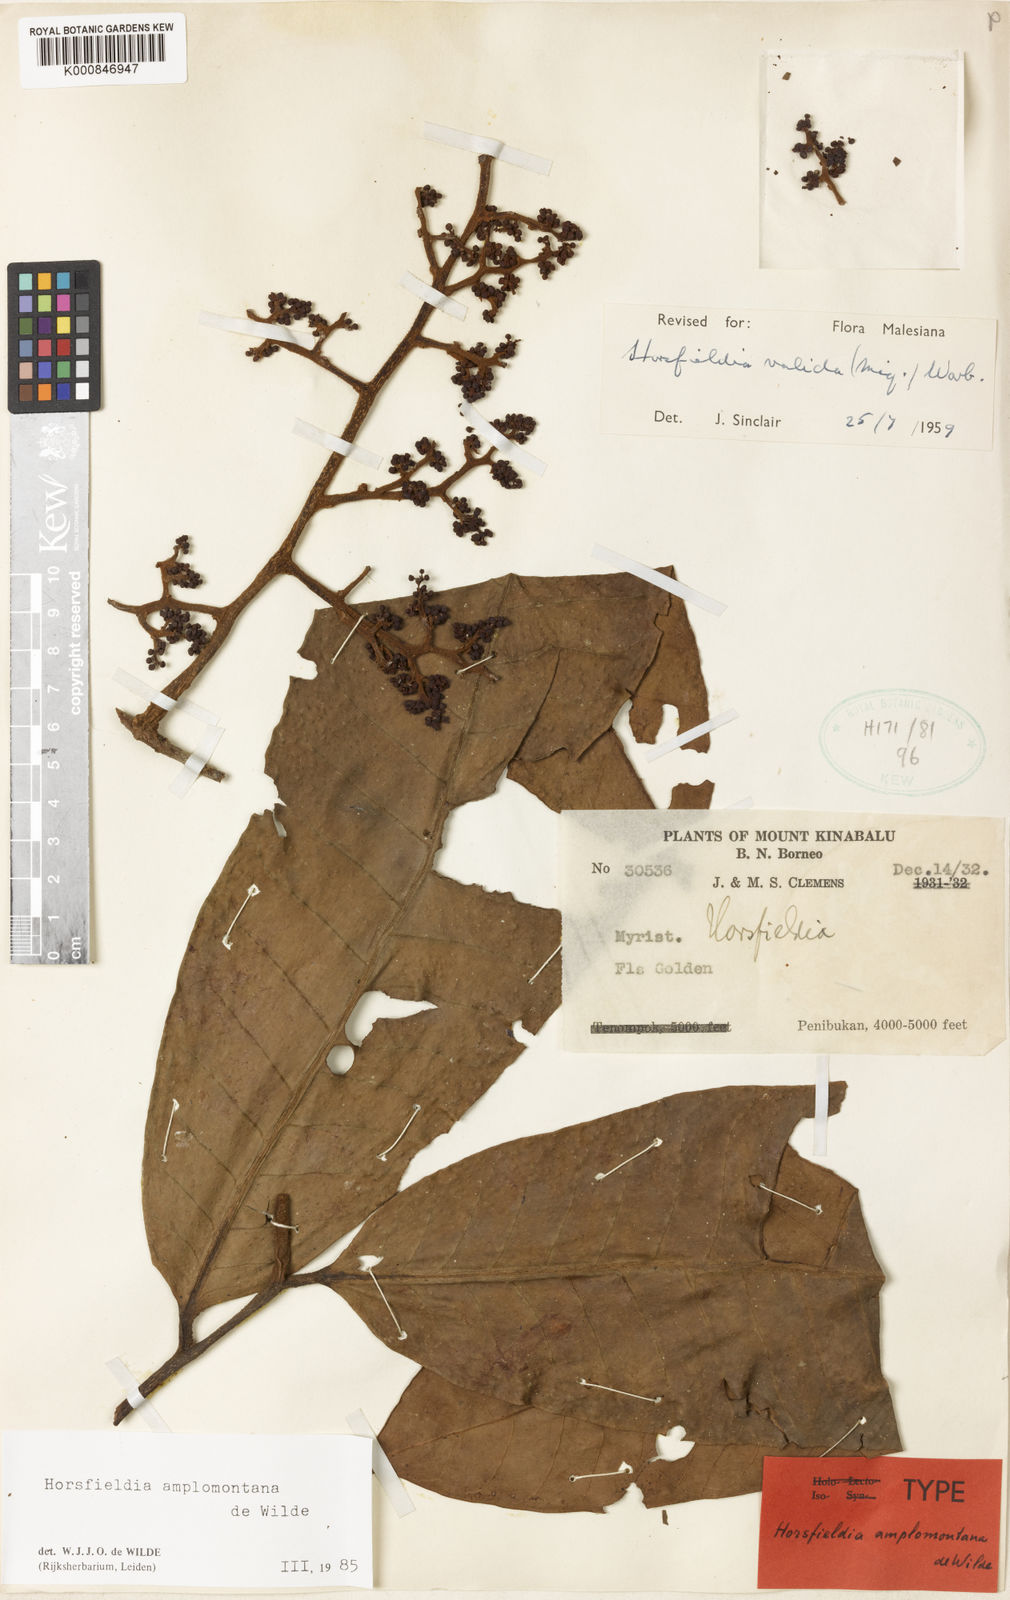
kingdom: Plantae
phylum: Tracheophyta
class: Magnoliopsida
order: Magnoliales
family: Myristicaceae
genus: Horsfieldia
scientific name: Horsfieldia amplomontana
